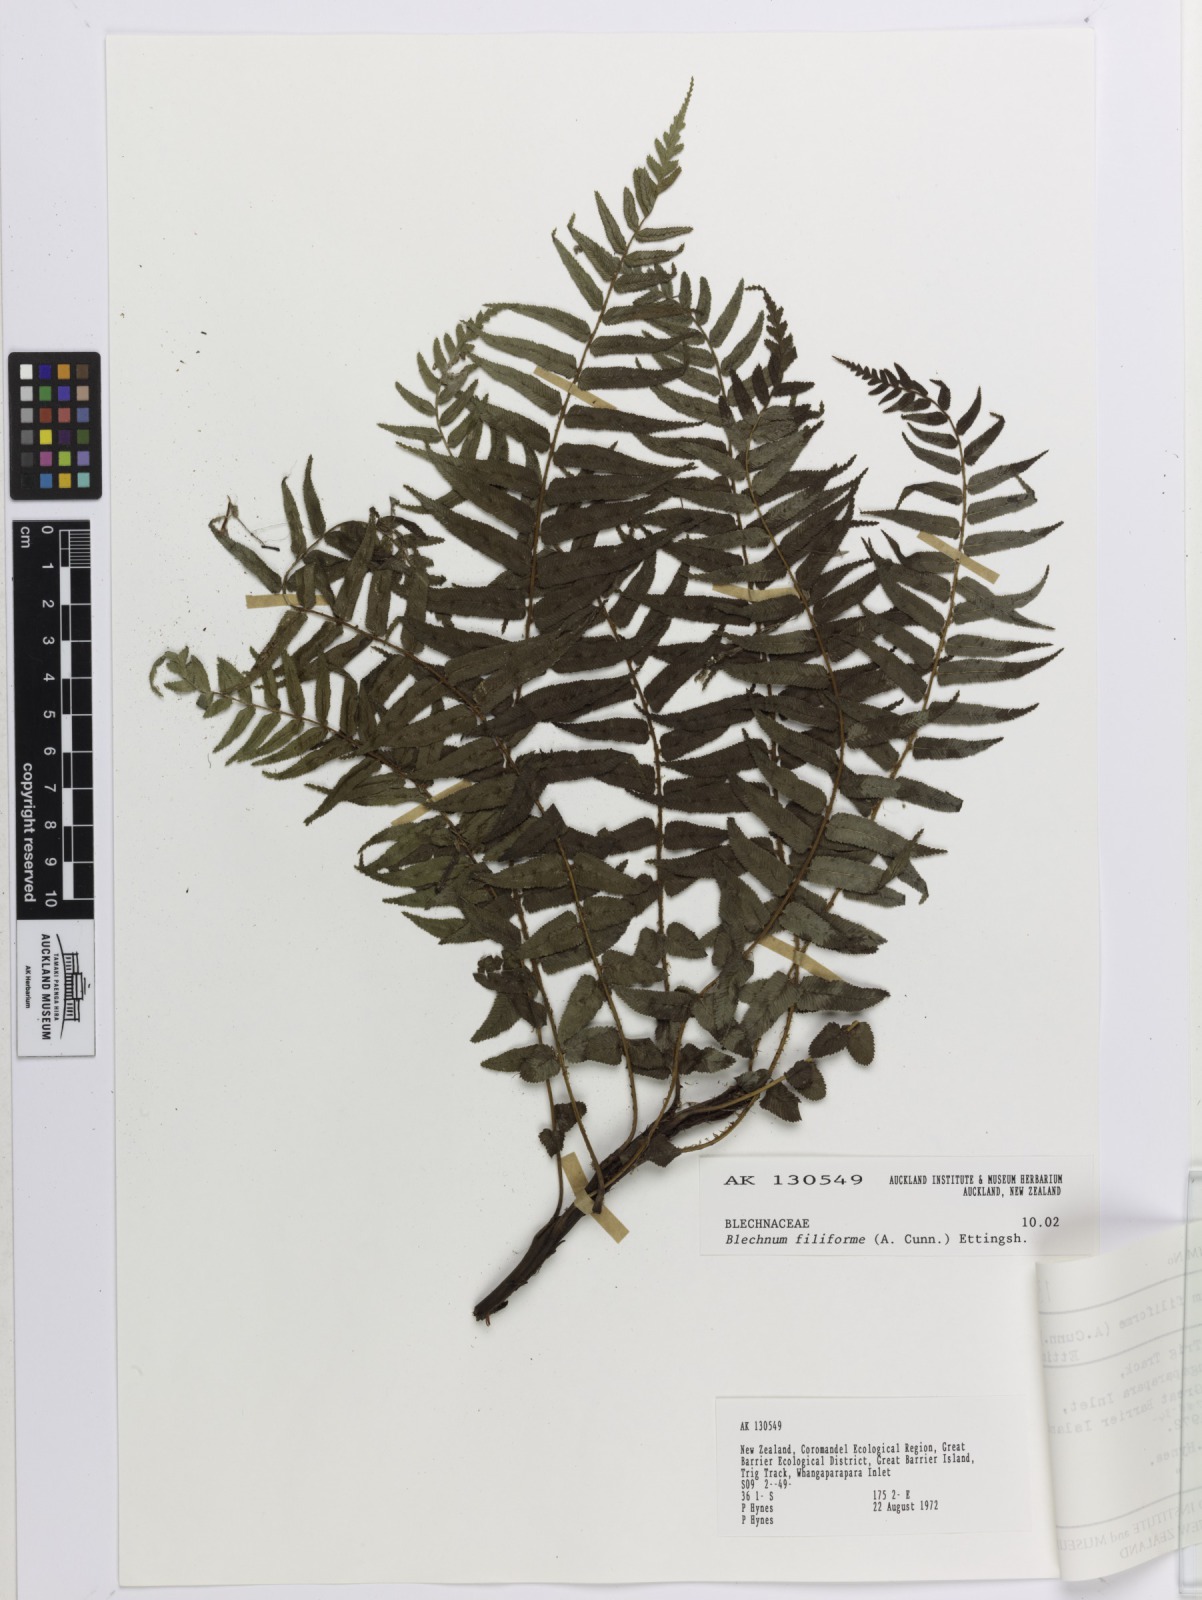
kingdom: Plantae
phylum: Tracheophyta
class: Polypodiopsida
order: Polypodiales
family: Blechnaceae
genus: Icarus
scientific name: Icarus filiformis
